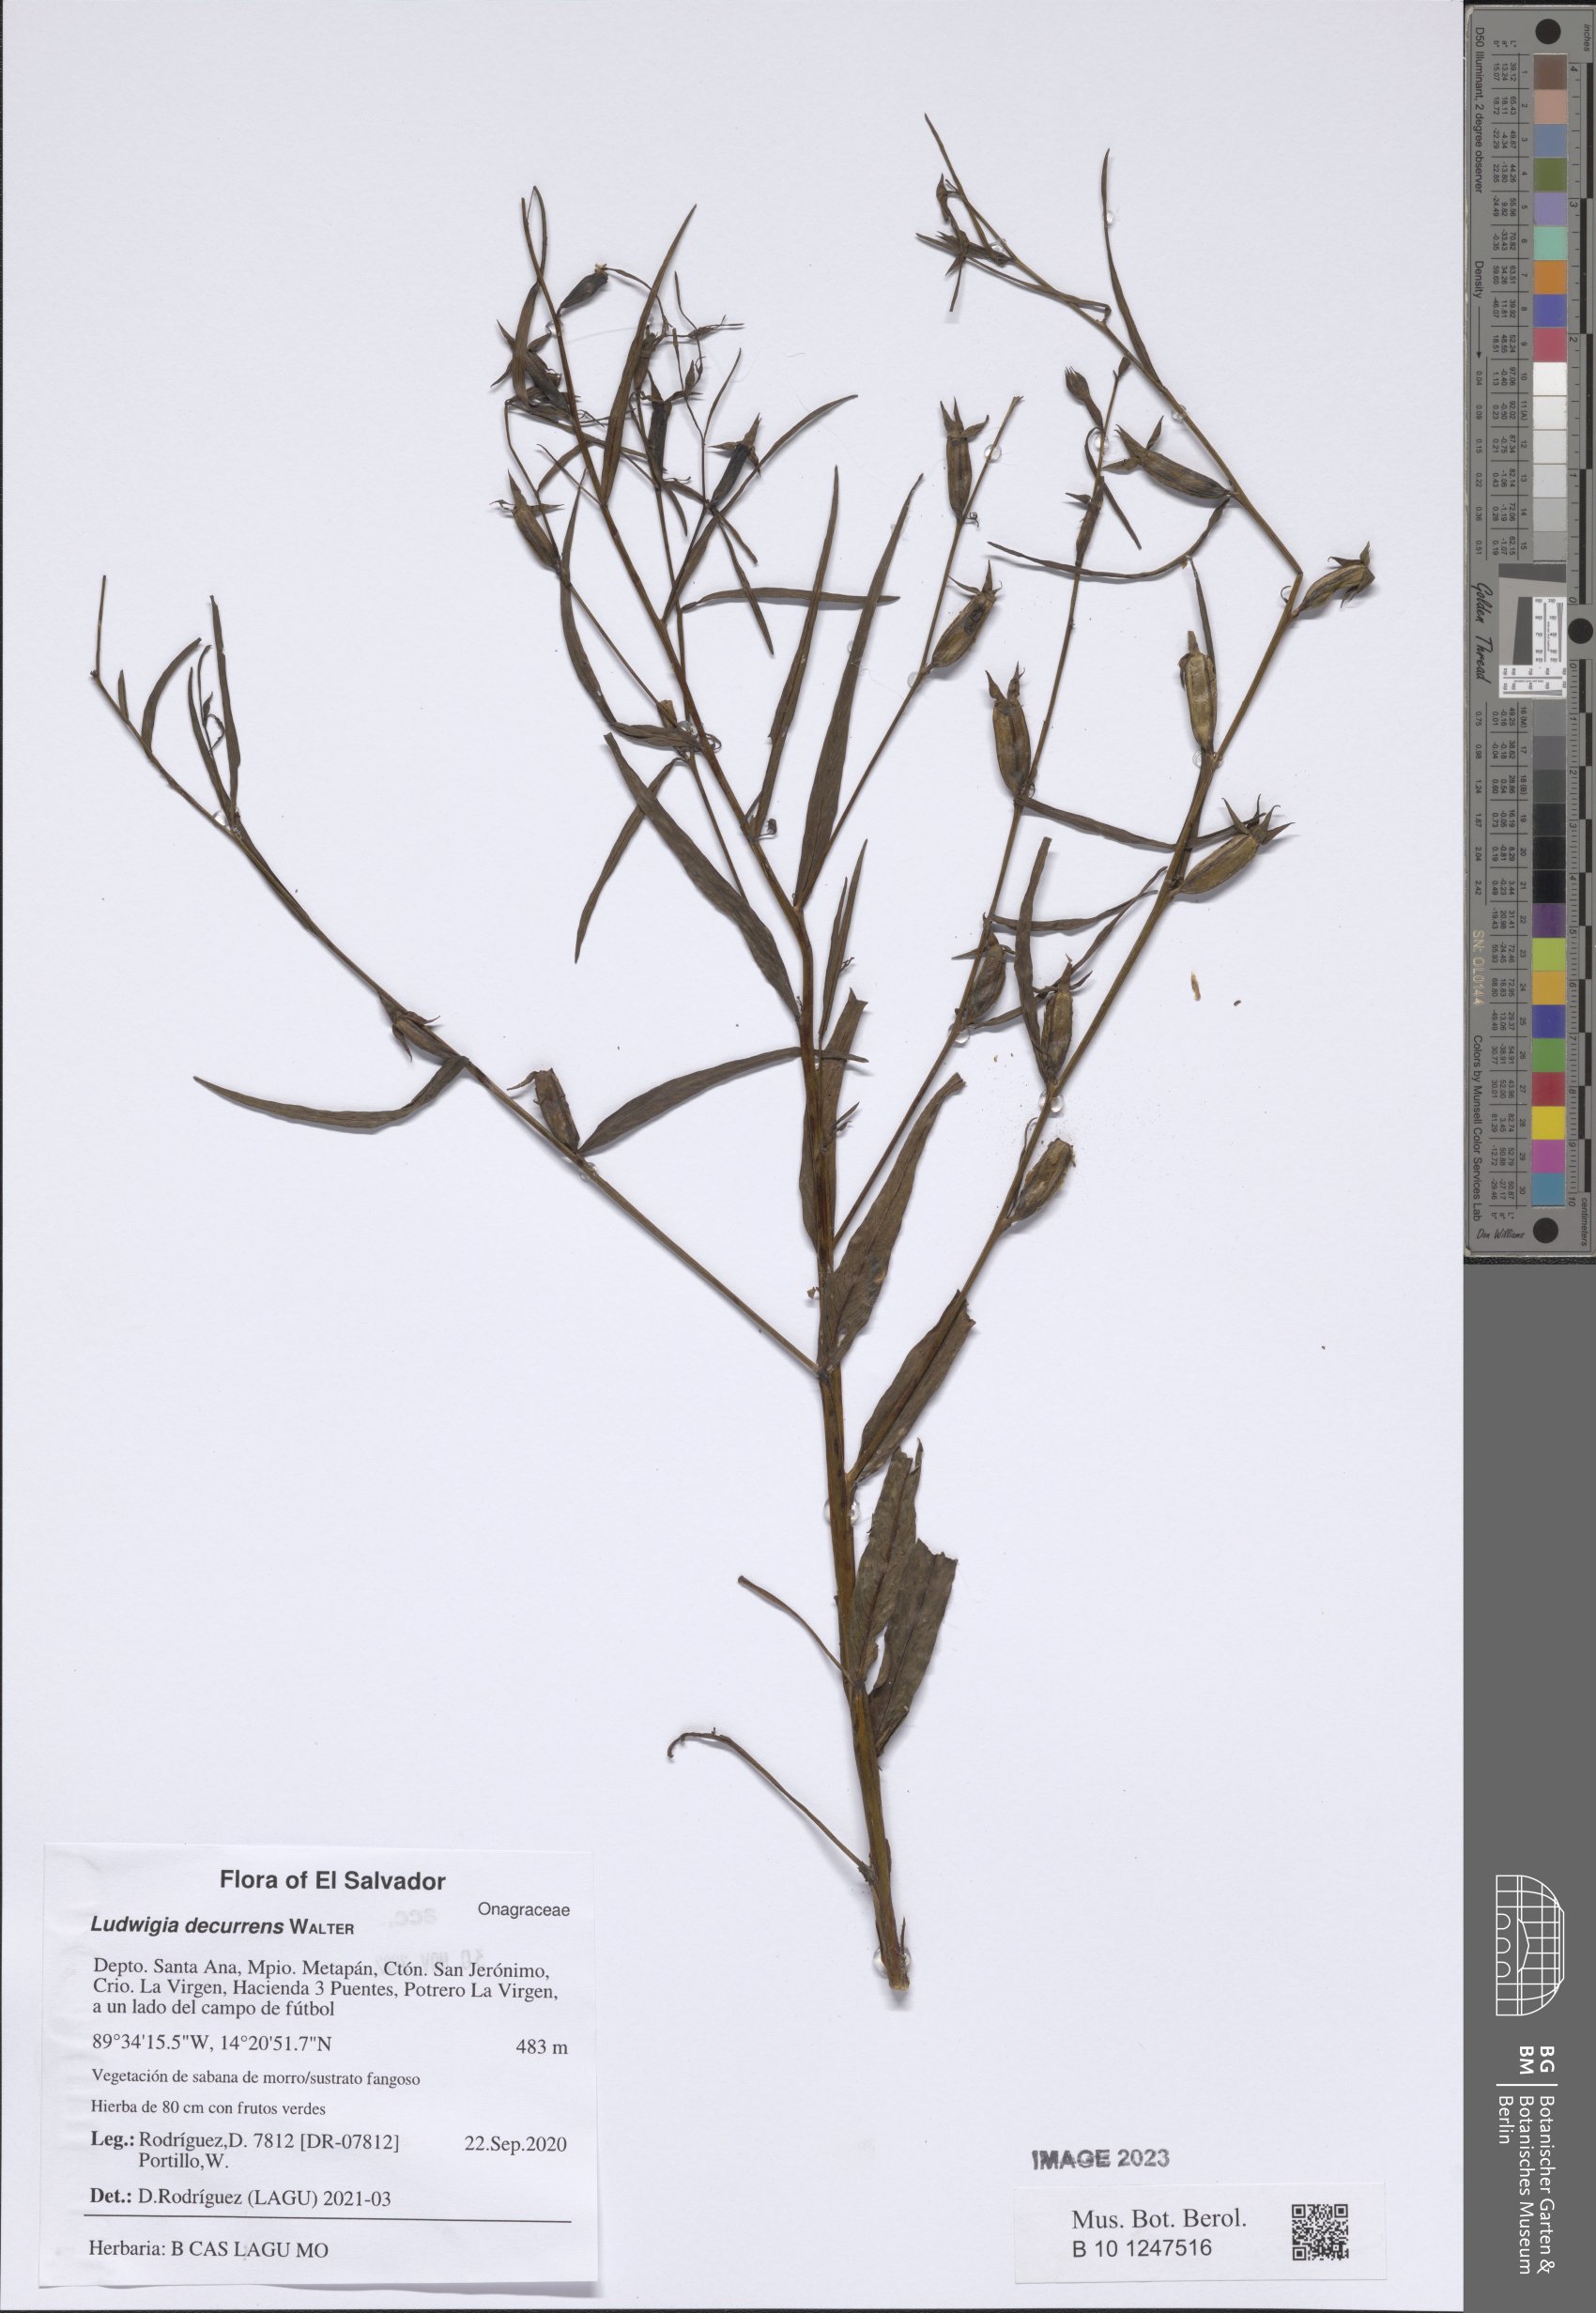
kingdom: Plantae
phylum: Tracheophyta
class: Magnoliopsida
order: Myrtales
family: Onagraceae
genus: Ludwigia
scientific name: Ludwigia decurrens
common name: Winged water-primrose
